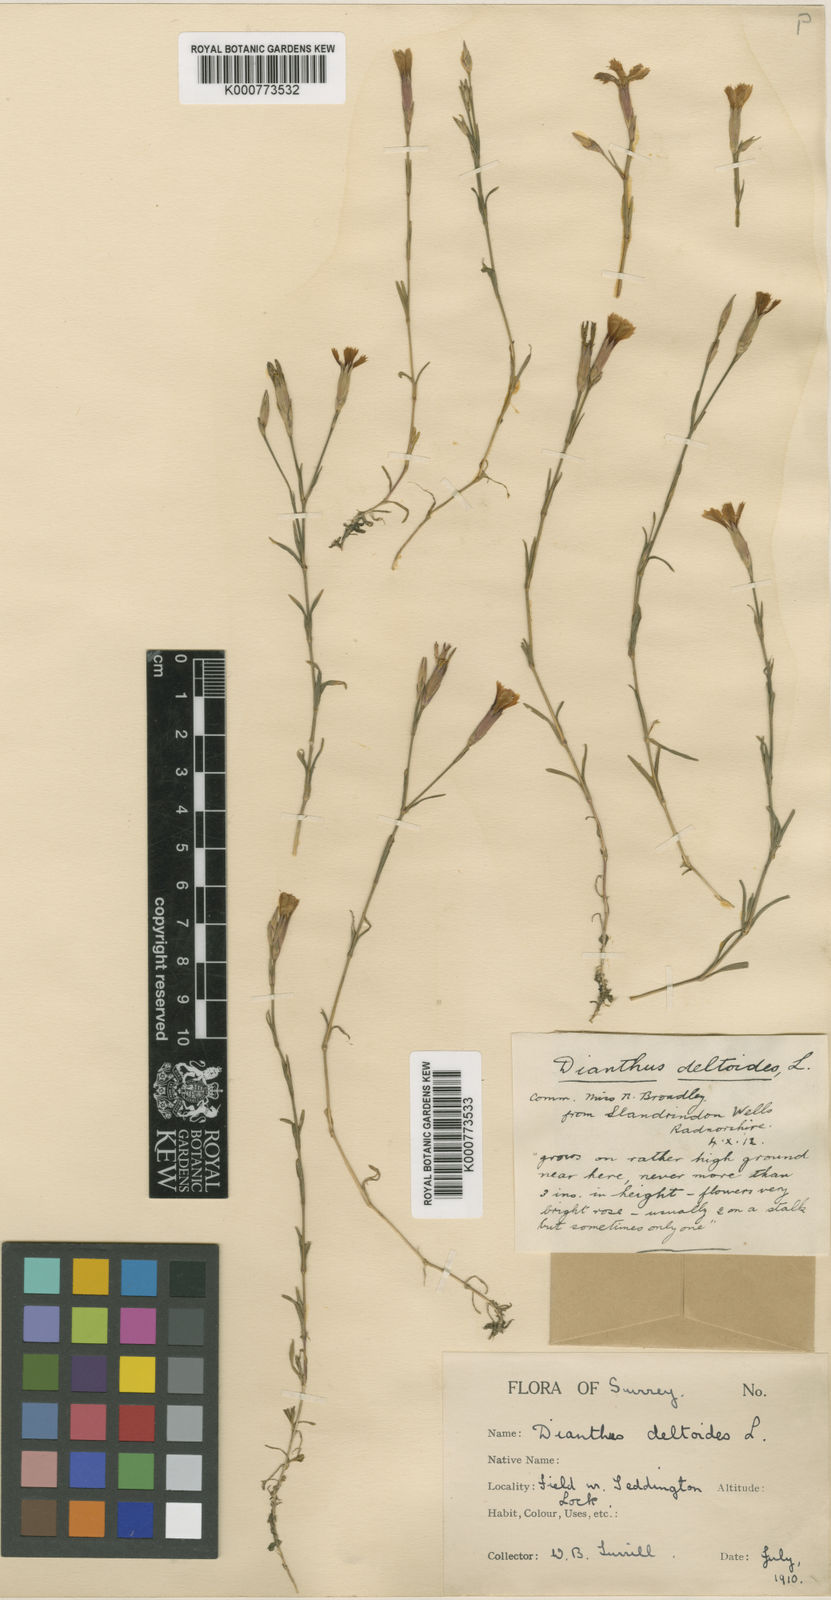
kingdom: Plantae
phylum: Tracheophyta
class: Magnoliopsida
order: Caryophyllales
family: Caryophyllaceae
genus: Dianthus
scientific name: Dianthus deltoides
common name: Maiden pink
